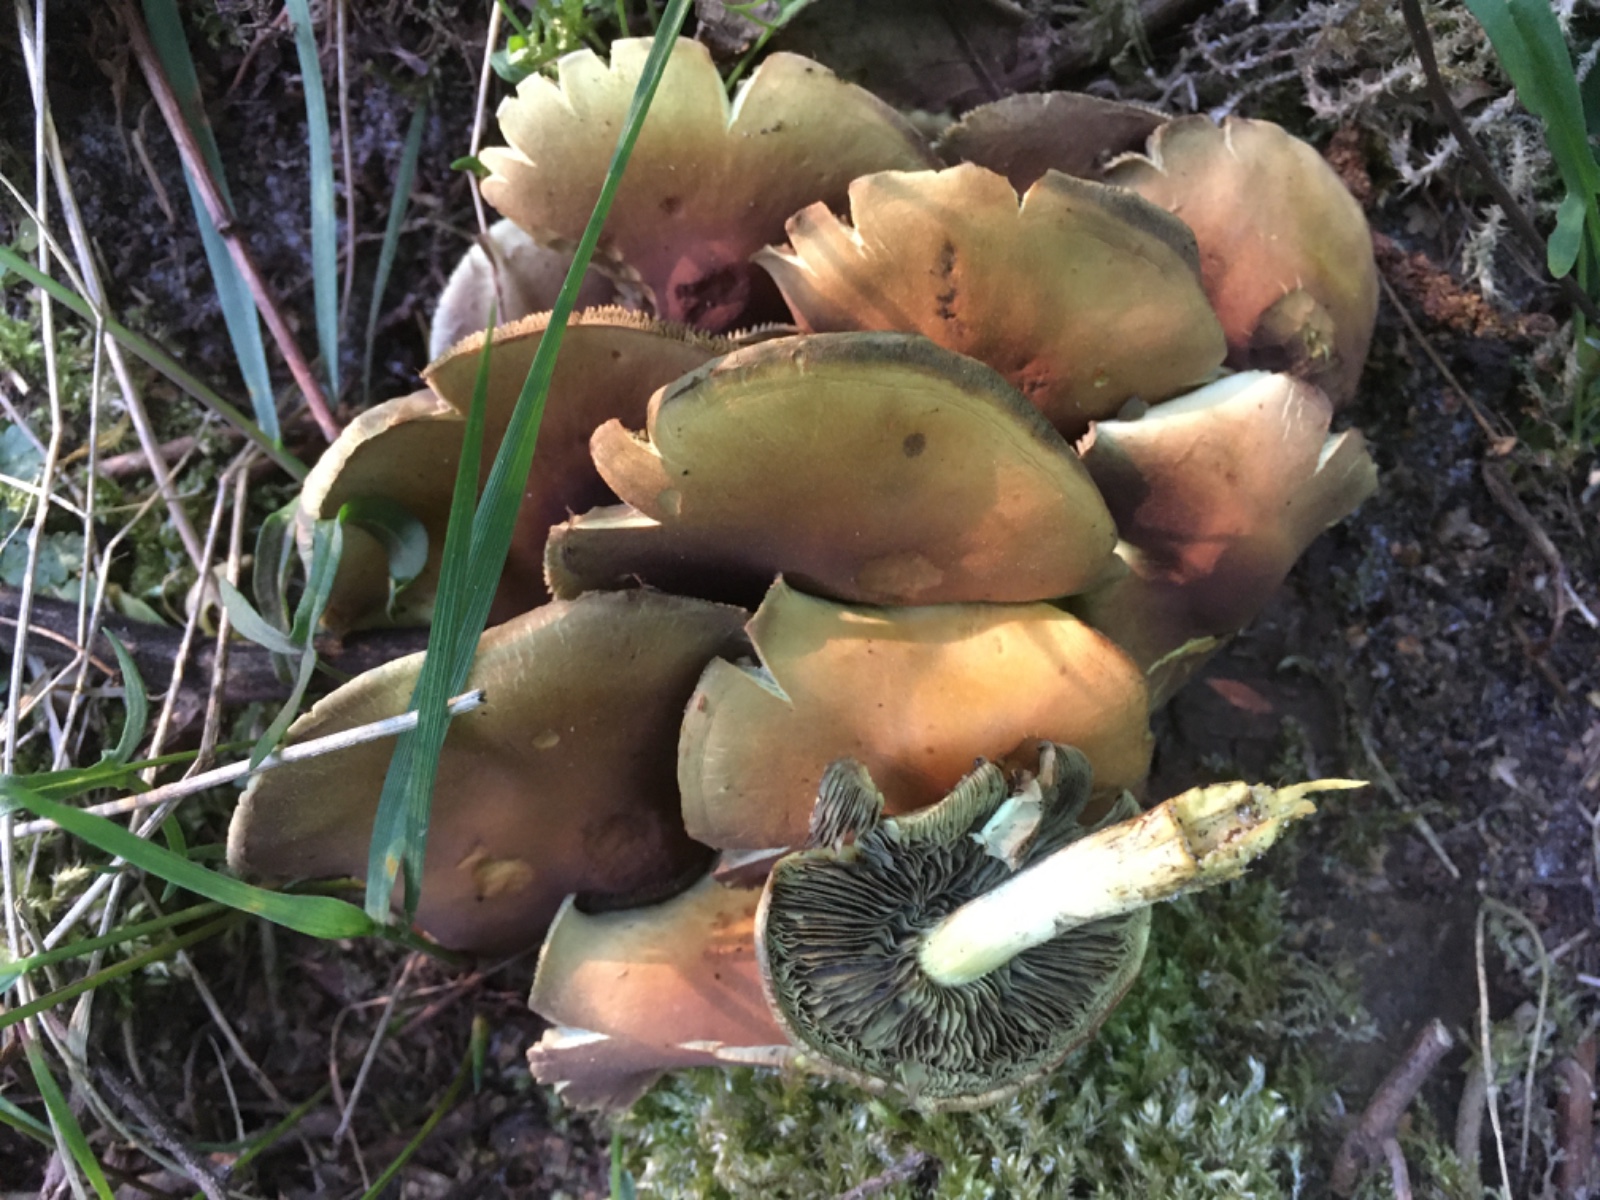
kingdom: Fungi
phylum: Basidiomycota
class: Agaricomycetes
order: Agaricales
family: Strophariaceae
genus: Hypholoma
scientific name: Hypholoma fasciculare
